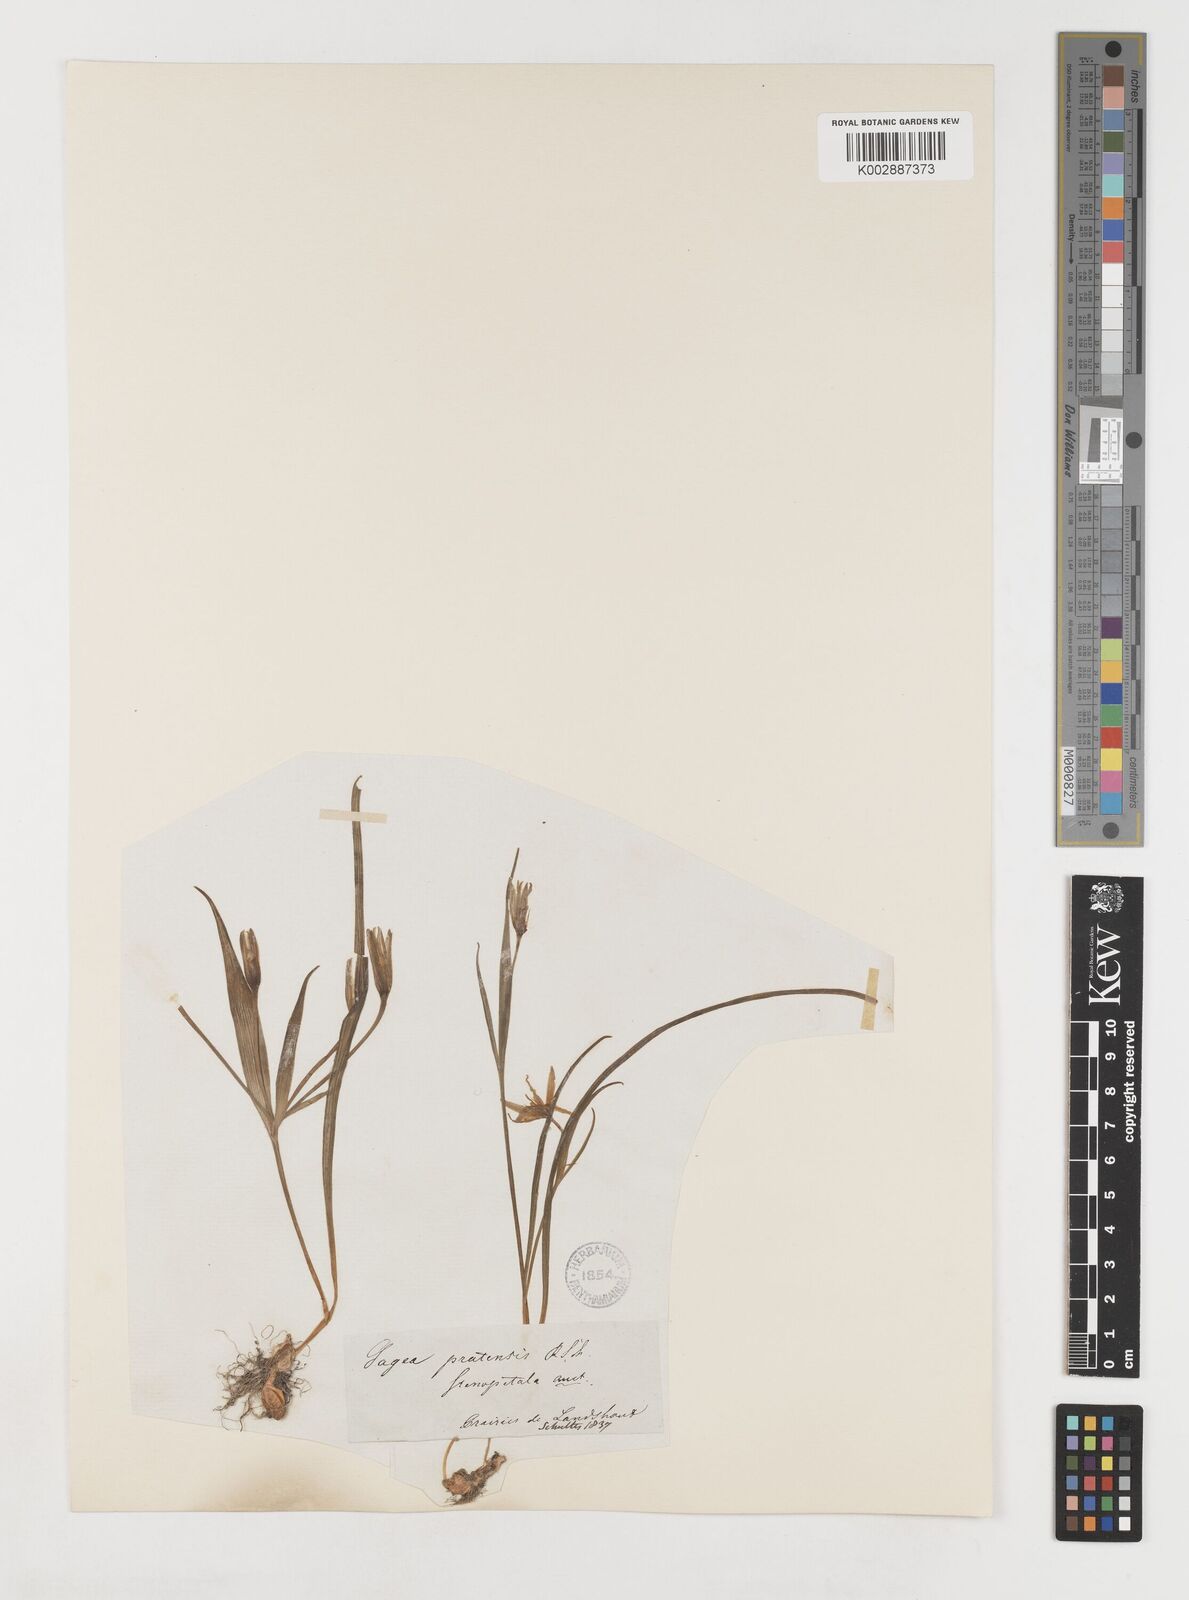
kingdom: Plantae
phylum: Tracheophyta
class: Liliopsida
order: Liliales
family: Liliaceae
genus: Gagea
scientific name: Gagea pratensis
